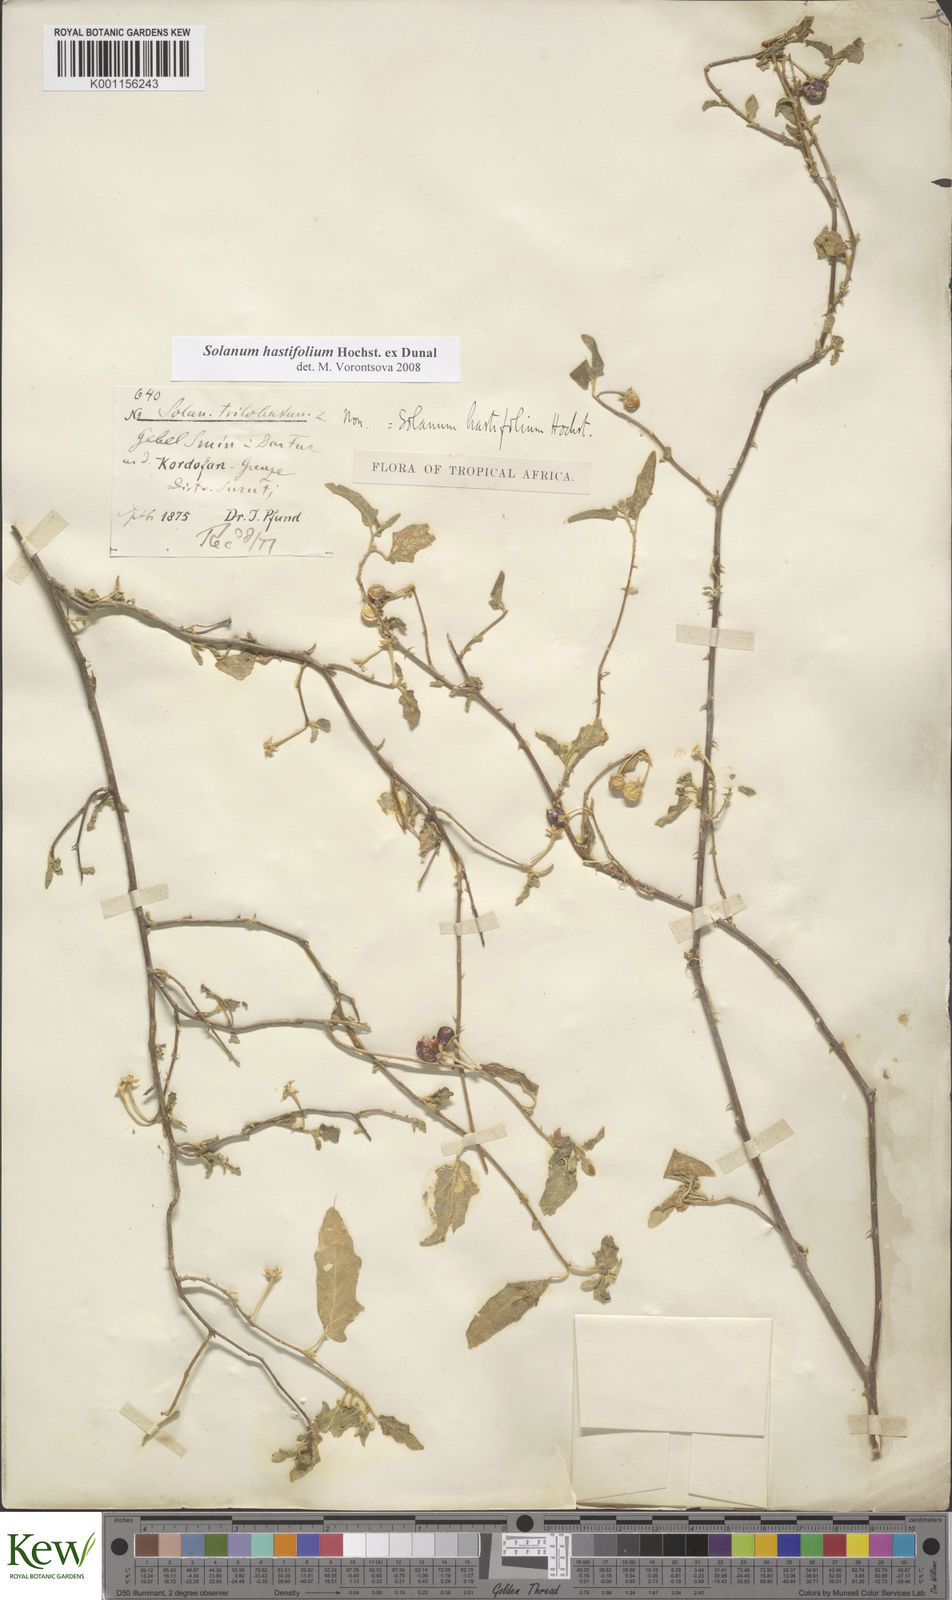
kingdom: Plantae
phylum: Tracheophyta
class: Magnoliopsida
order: Solanales
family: Solanaceae
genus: Solanum
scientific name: Solanum hastifolium
